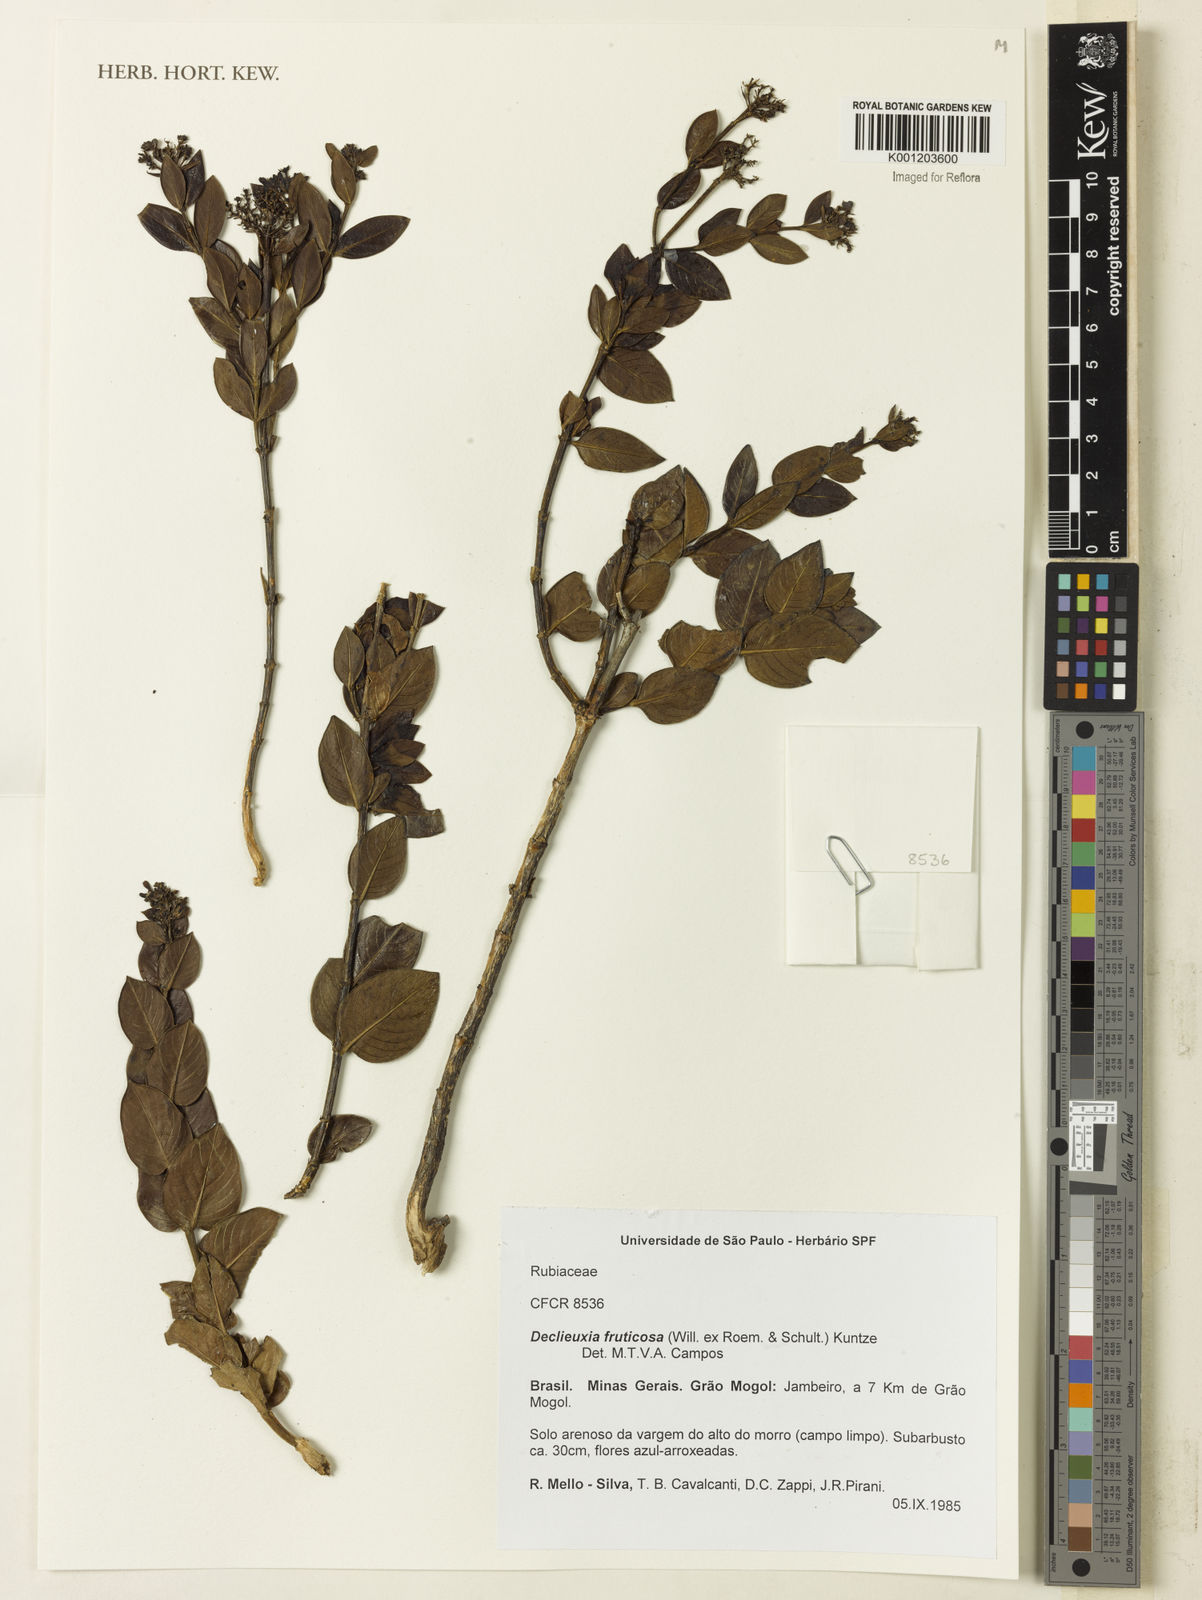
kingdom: Plantae
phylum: Tracheophyta
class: Magnoliopsida
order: Gentianales
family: Rubiaceae
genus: Declieuxia
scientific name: Declieuxia fruticosa
